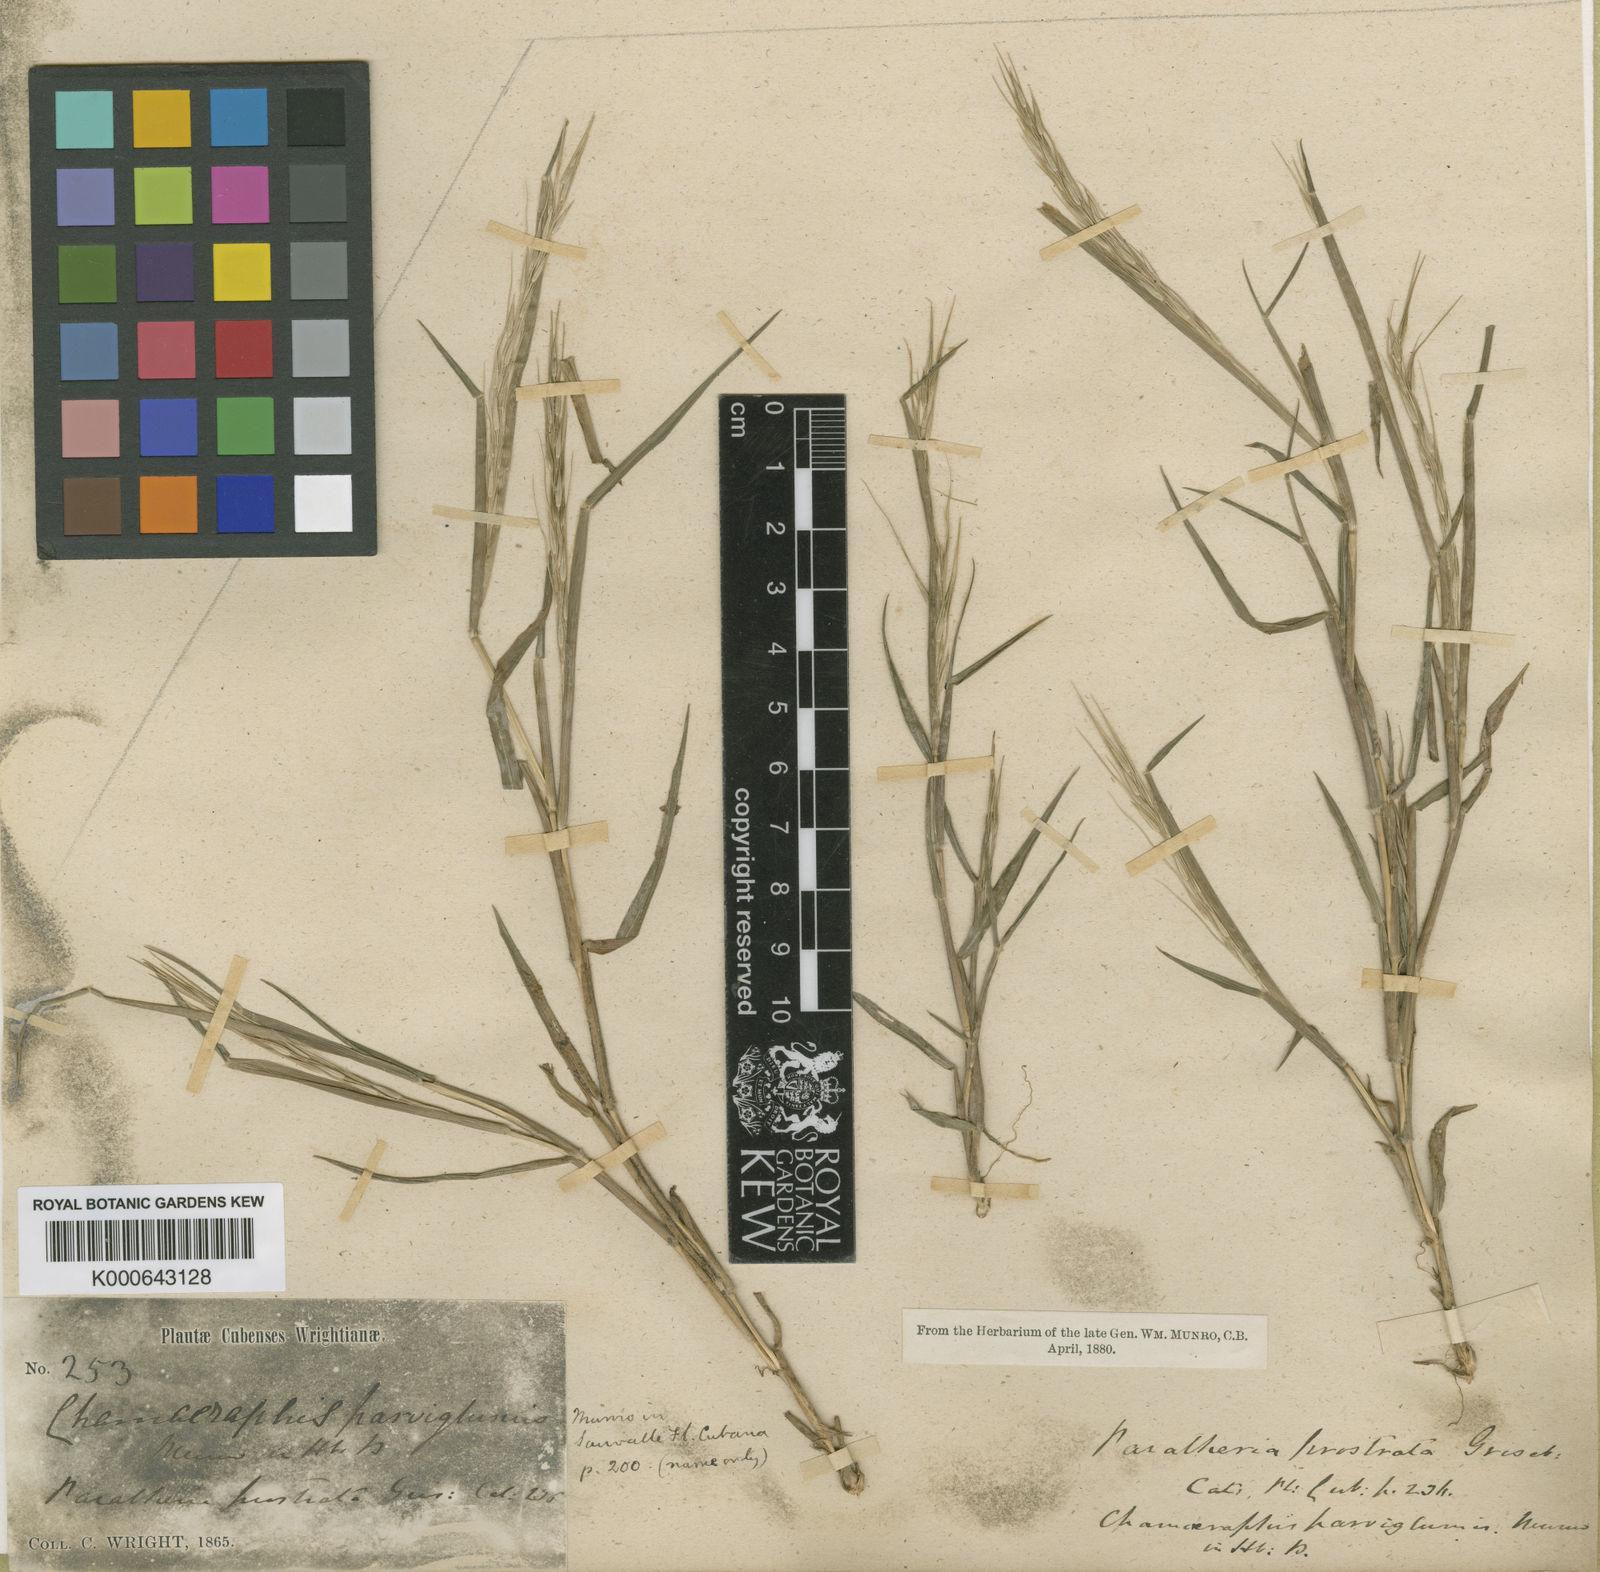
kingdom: Plantae
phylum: Tracheophyta
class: Liliopsida
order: Poales
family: Poaceae
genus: Paratheria
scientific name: Paratheria prostrata
